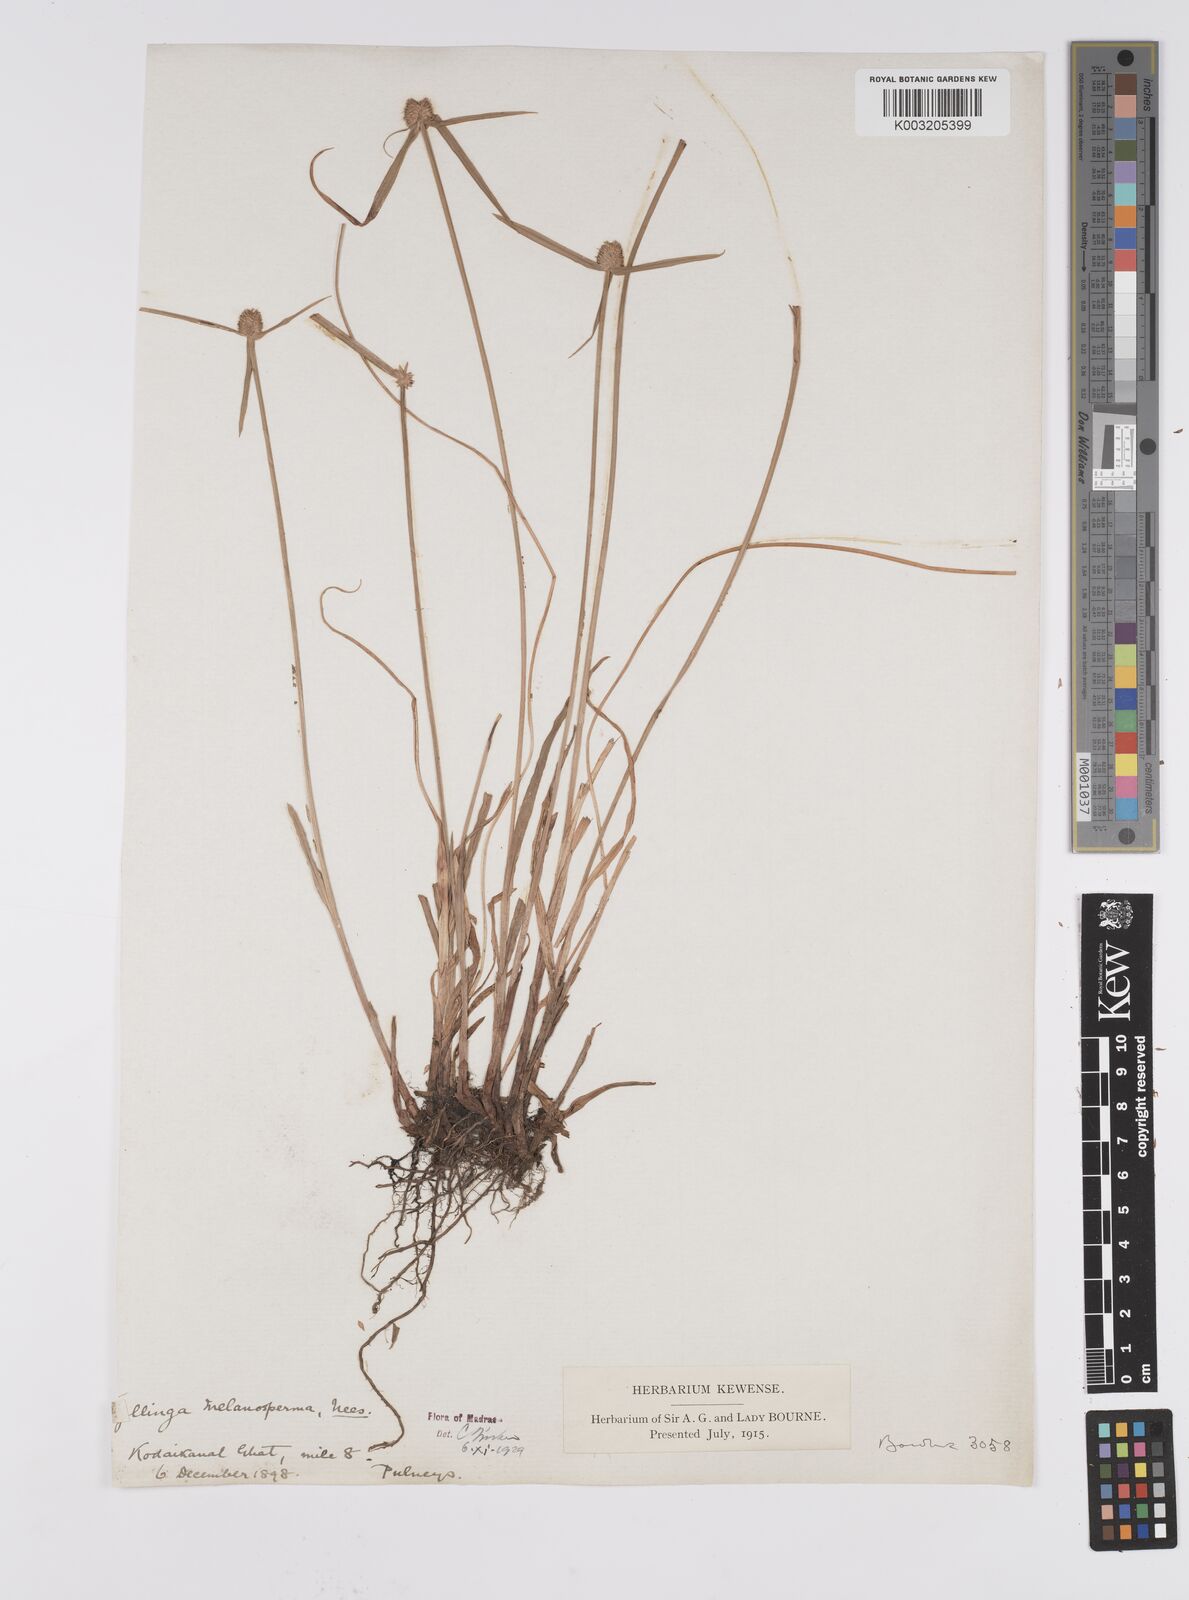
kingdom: Plantae
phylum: Tracheophyta
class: Liliopsida
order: Poales
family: Cyperaceae
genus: Cyperus
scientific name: Cyperus brevifolius
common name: Globe kyllinga
